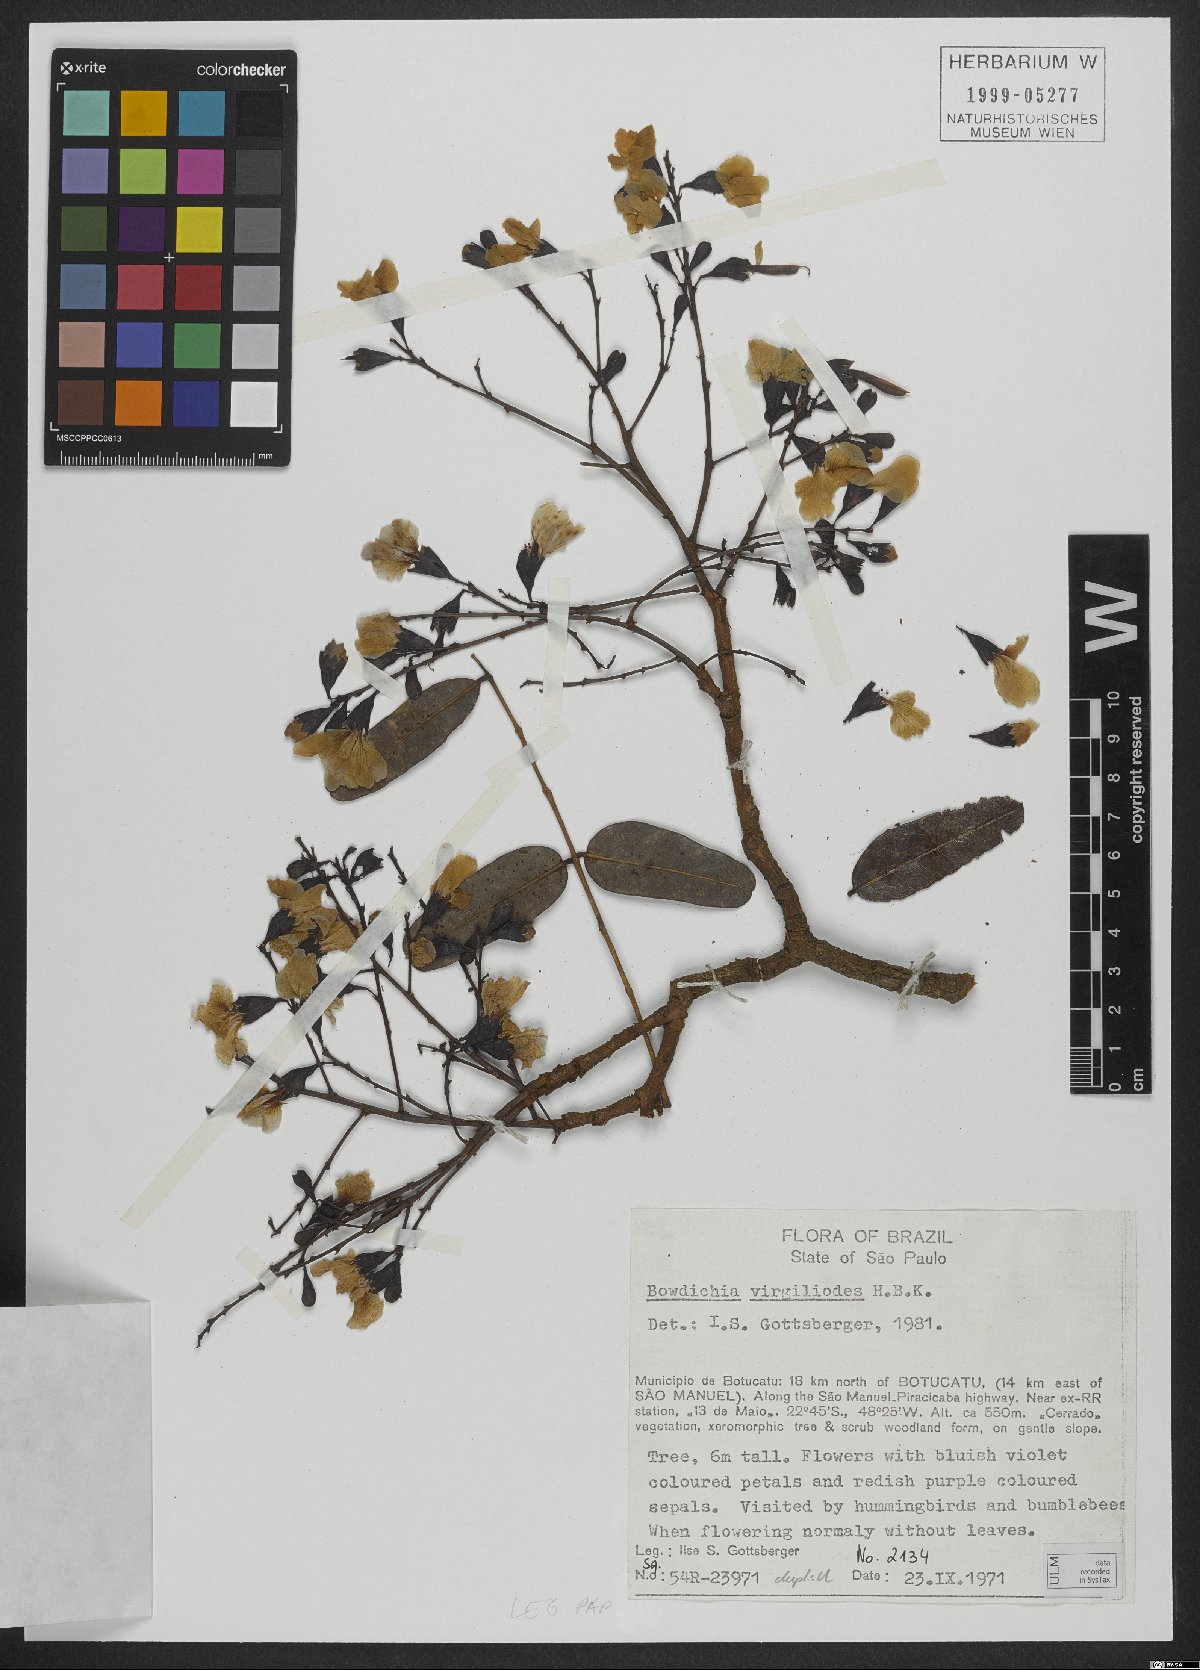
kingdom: Plantae
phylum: Tracheophyta
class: Magnoliopsida
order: Fabales
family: Fabaceae
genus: Bowdichia
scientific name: Bowdichia virgilioides
